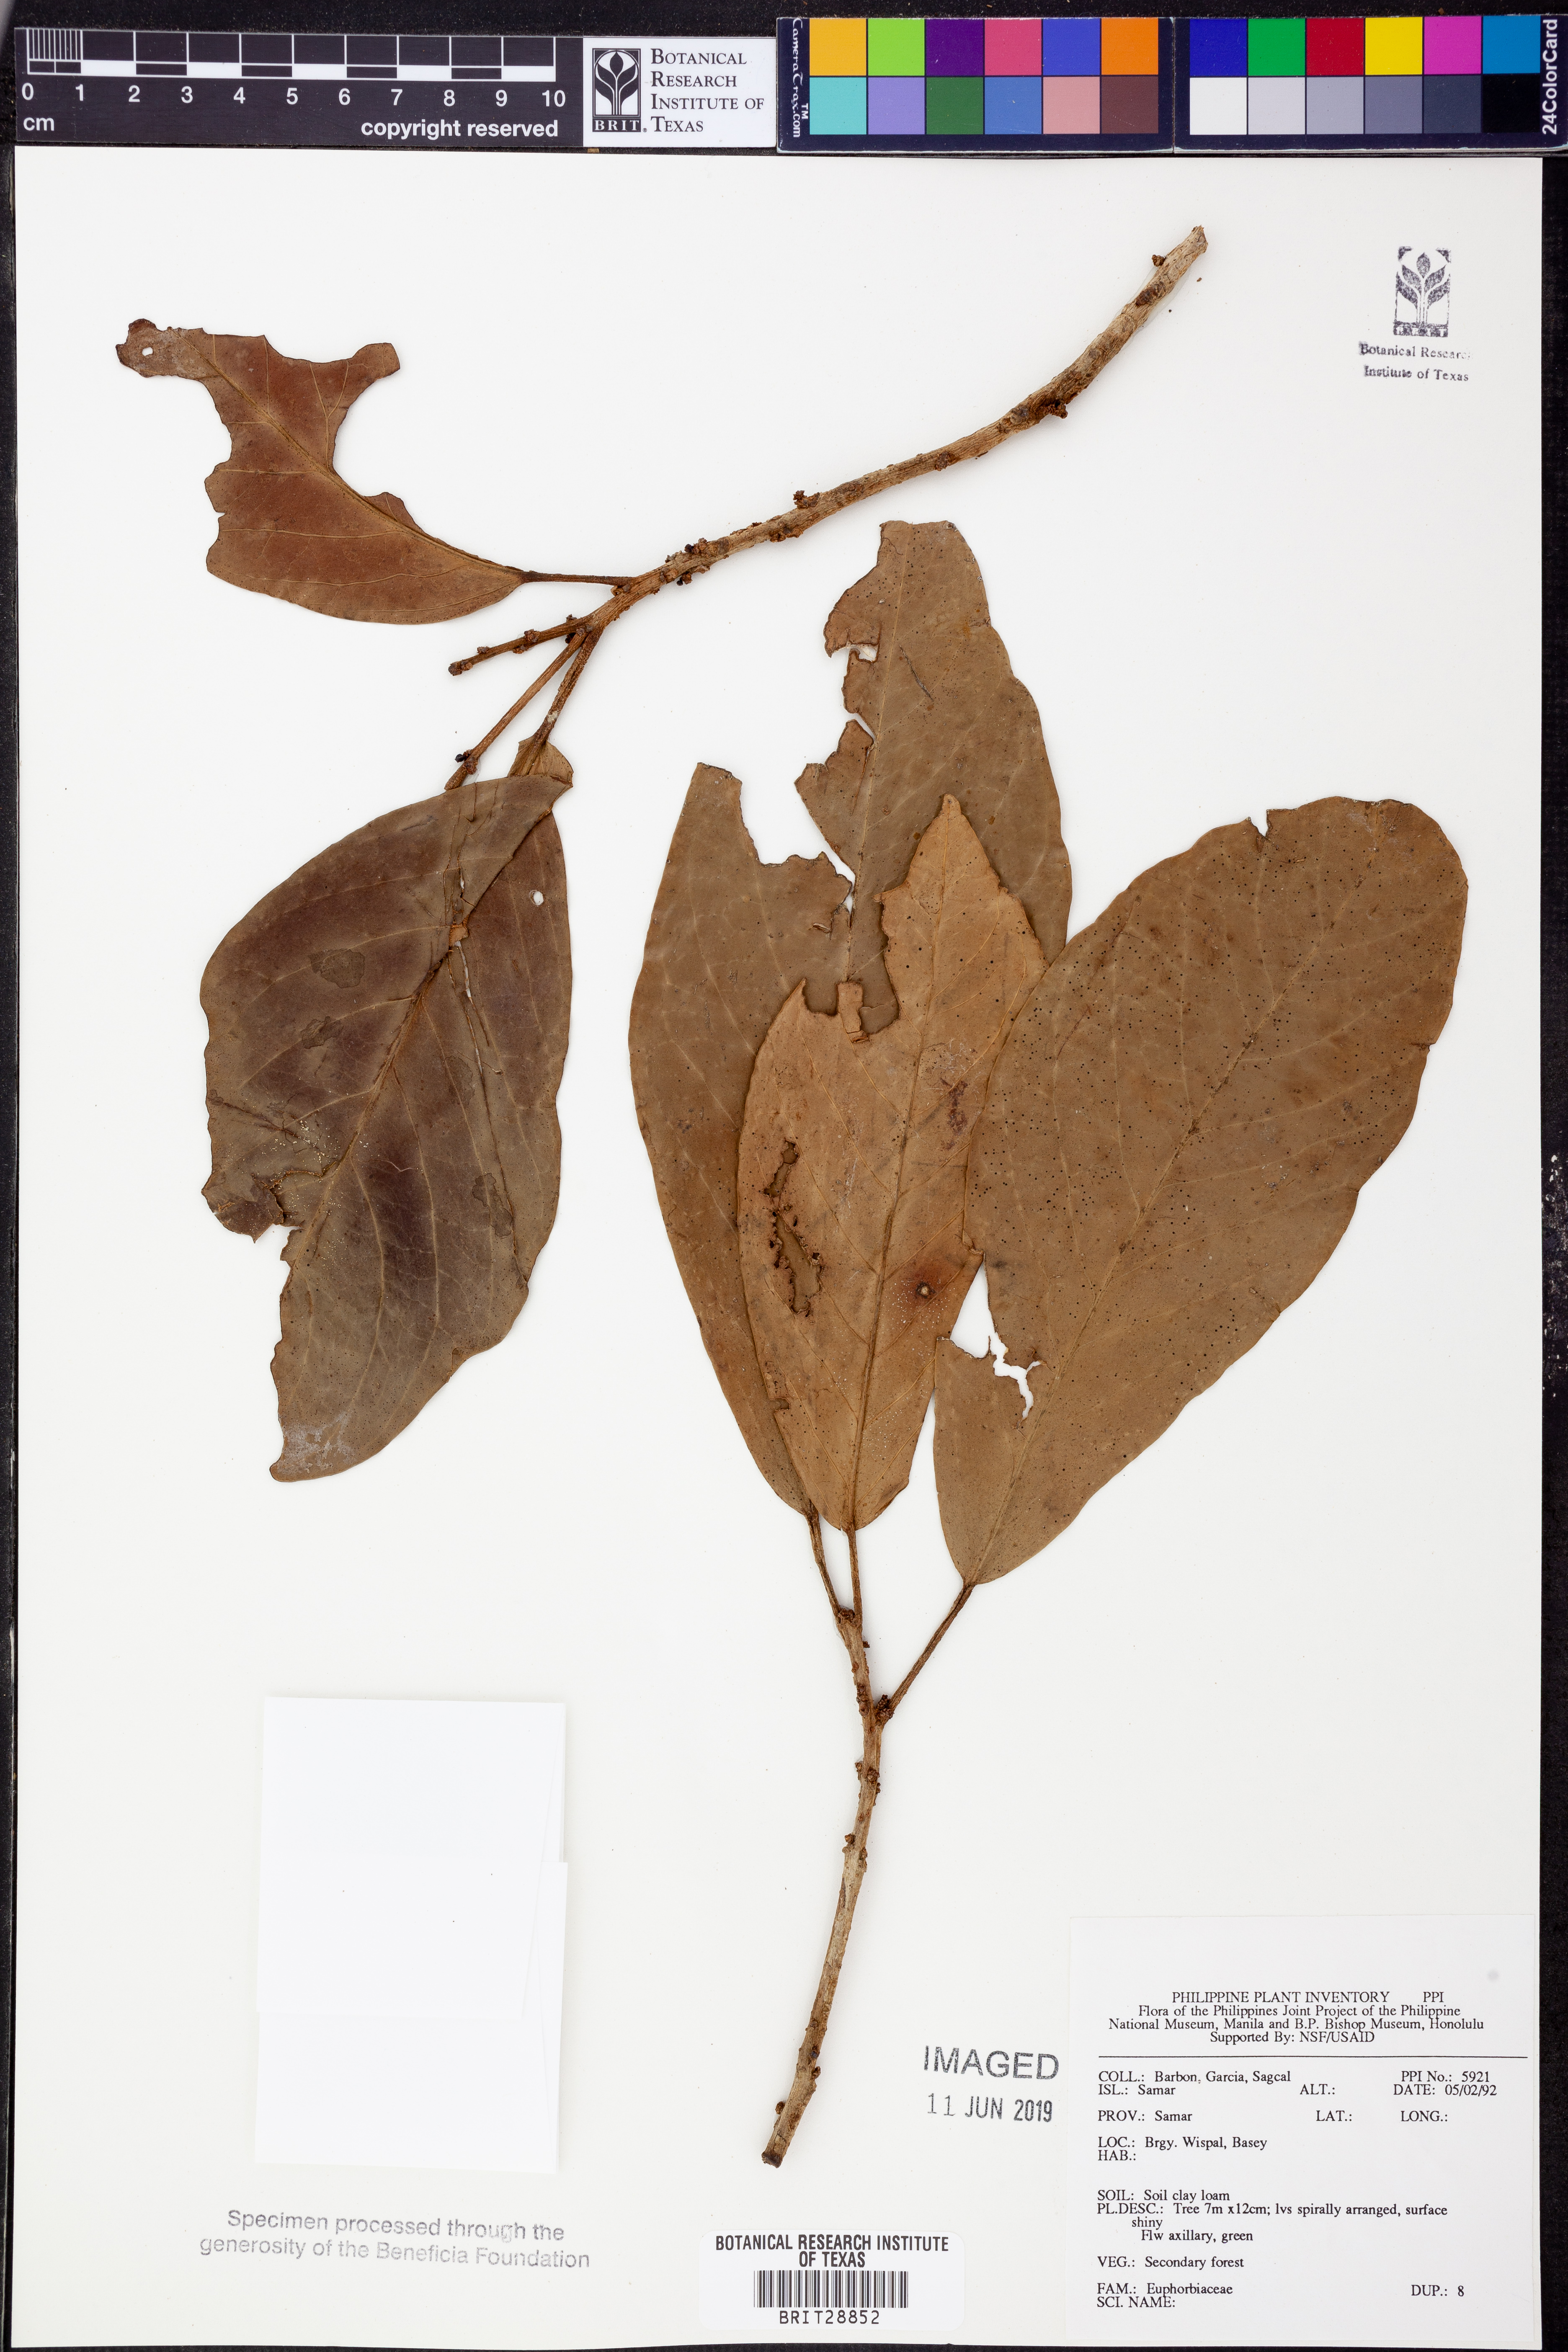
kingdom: Plantae
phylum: Tracheophyta
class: Magnoliopsida
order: Malpighiales
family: Euphorbiaceae
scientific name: Euphorbiaceae
